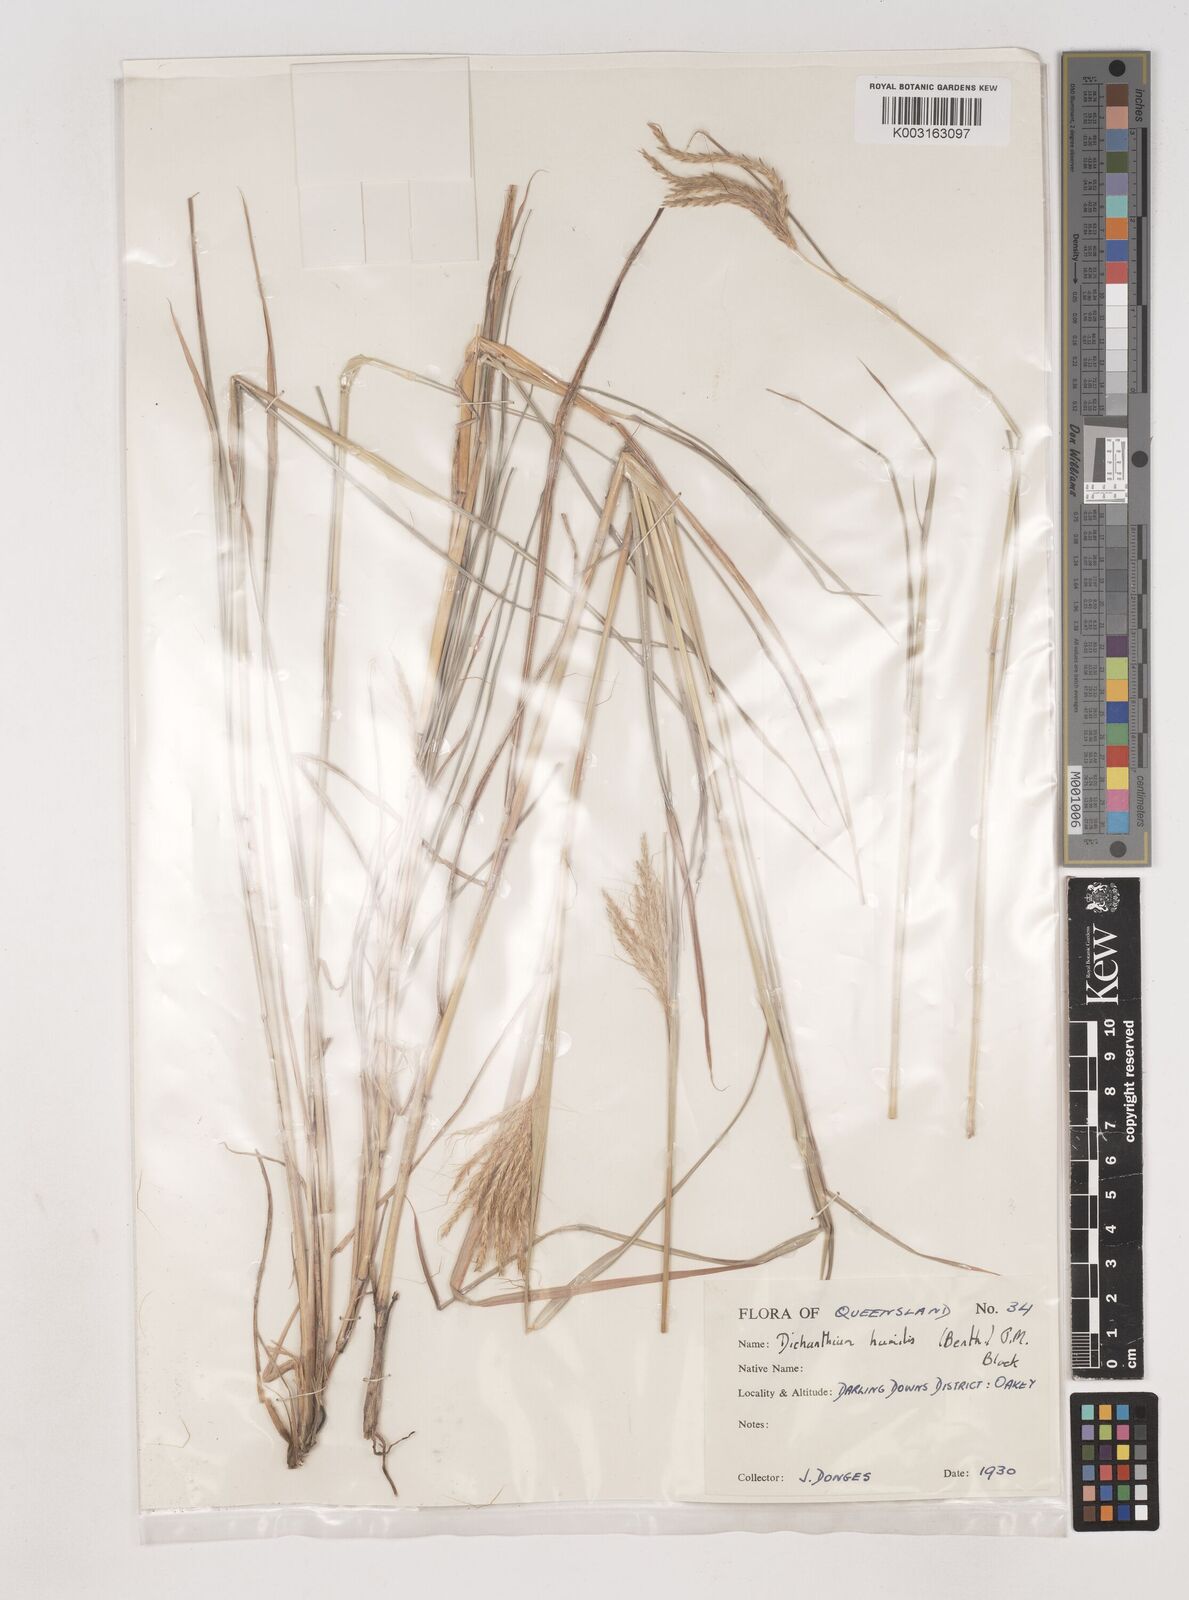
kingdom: Plantae
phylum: Tracheophyta
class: Liliopsida
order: Poales
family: Poaceae
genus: Dichanthium
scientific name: Dichanthium sericeum
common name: Silky bluestem
